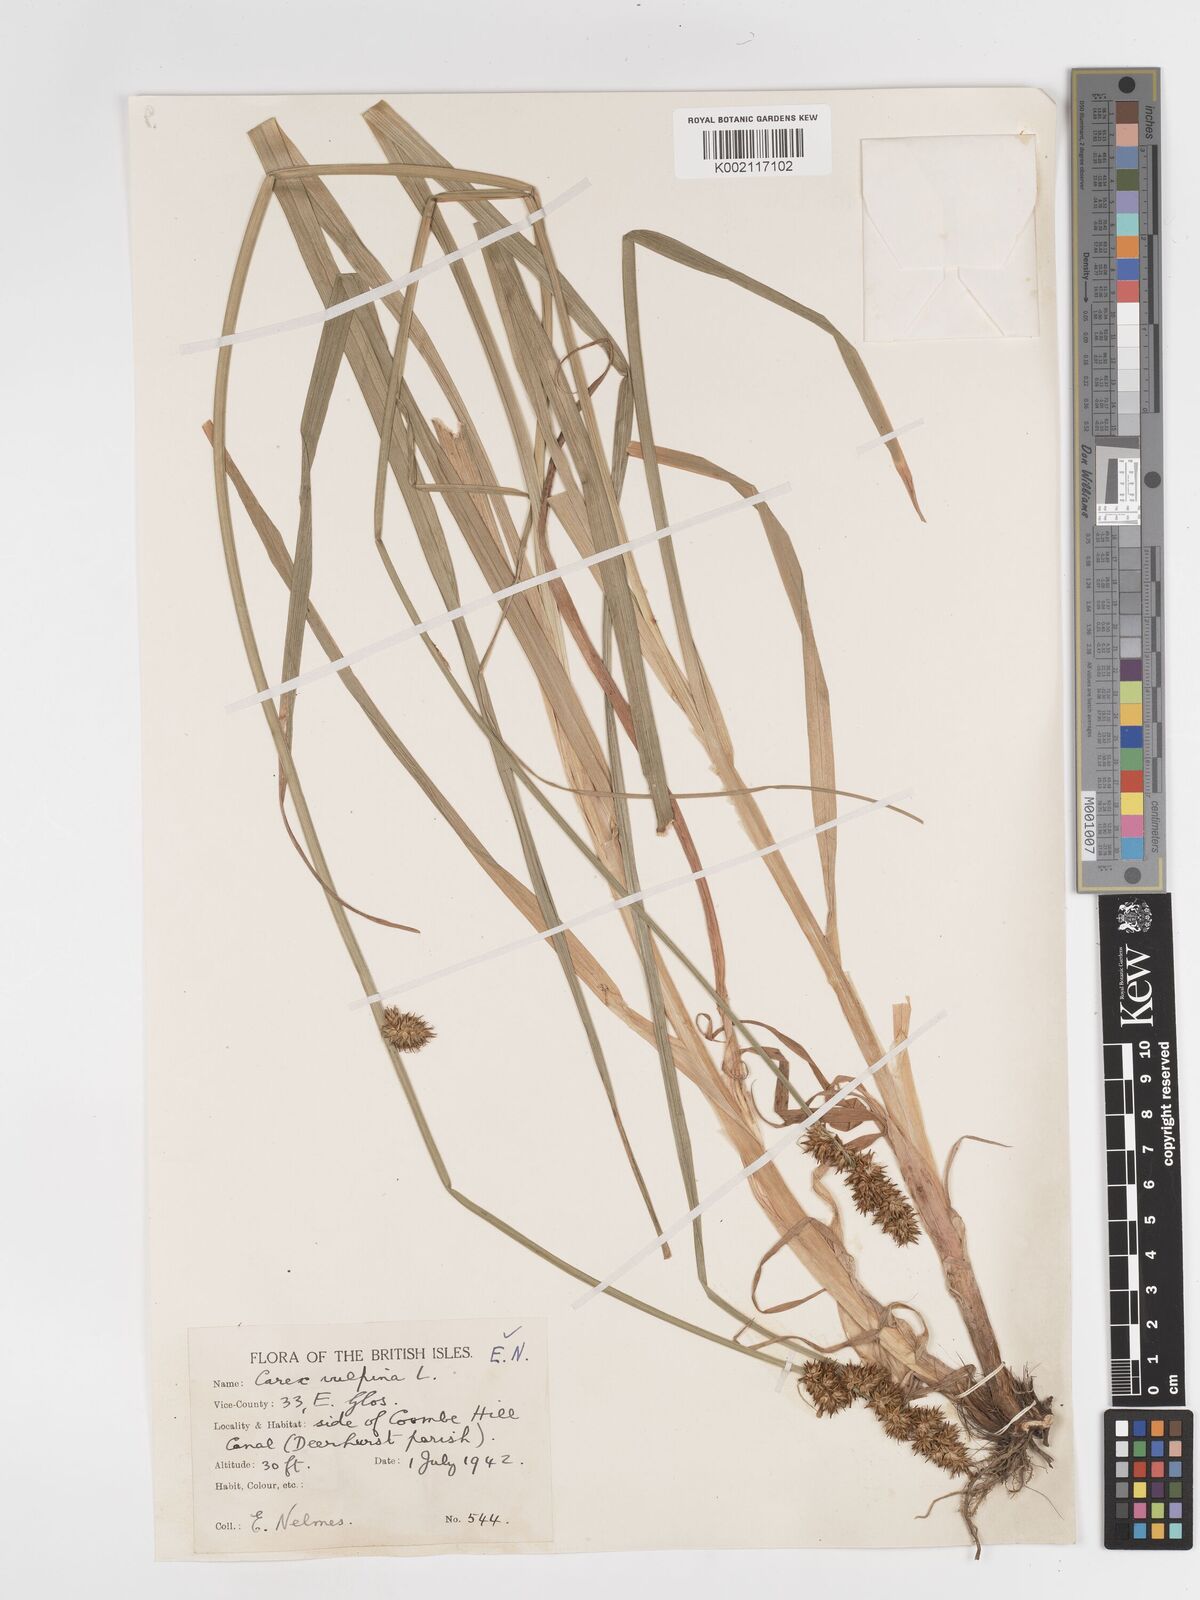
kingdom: Plantae
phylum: Tracheophyta
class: Liliopsida
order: Poales
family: Cyperaceae
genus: Carex
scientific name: Carex vulpina
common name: True fox-sedge
